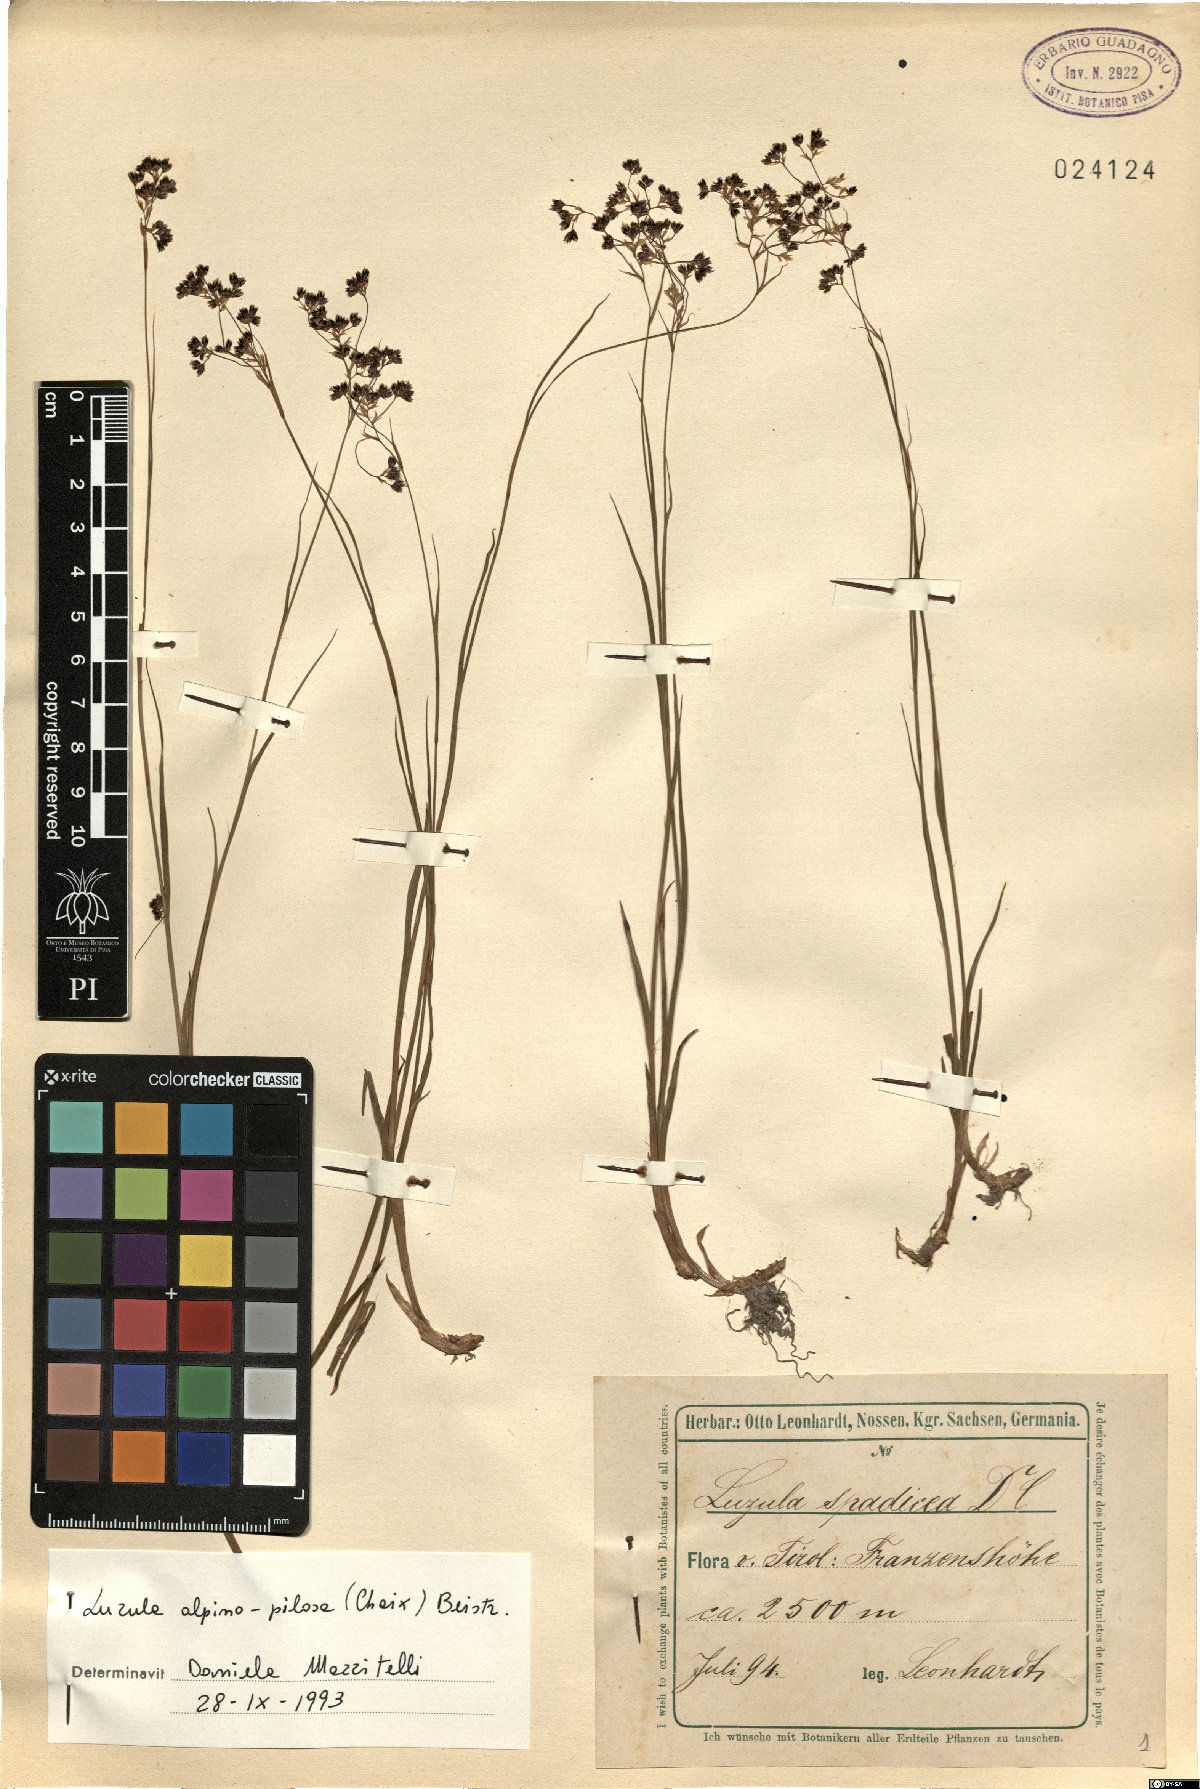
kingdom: Plantae
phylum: Tracheophyta
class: Liliopsida
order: Poales
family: Juncaceae
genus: Luzula
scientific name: Luzula alpinopilosa
